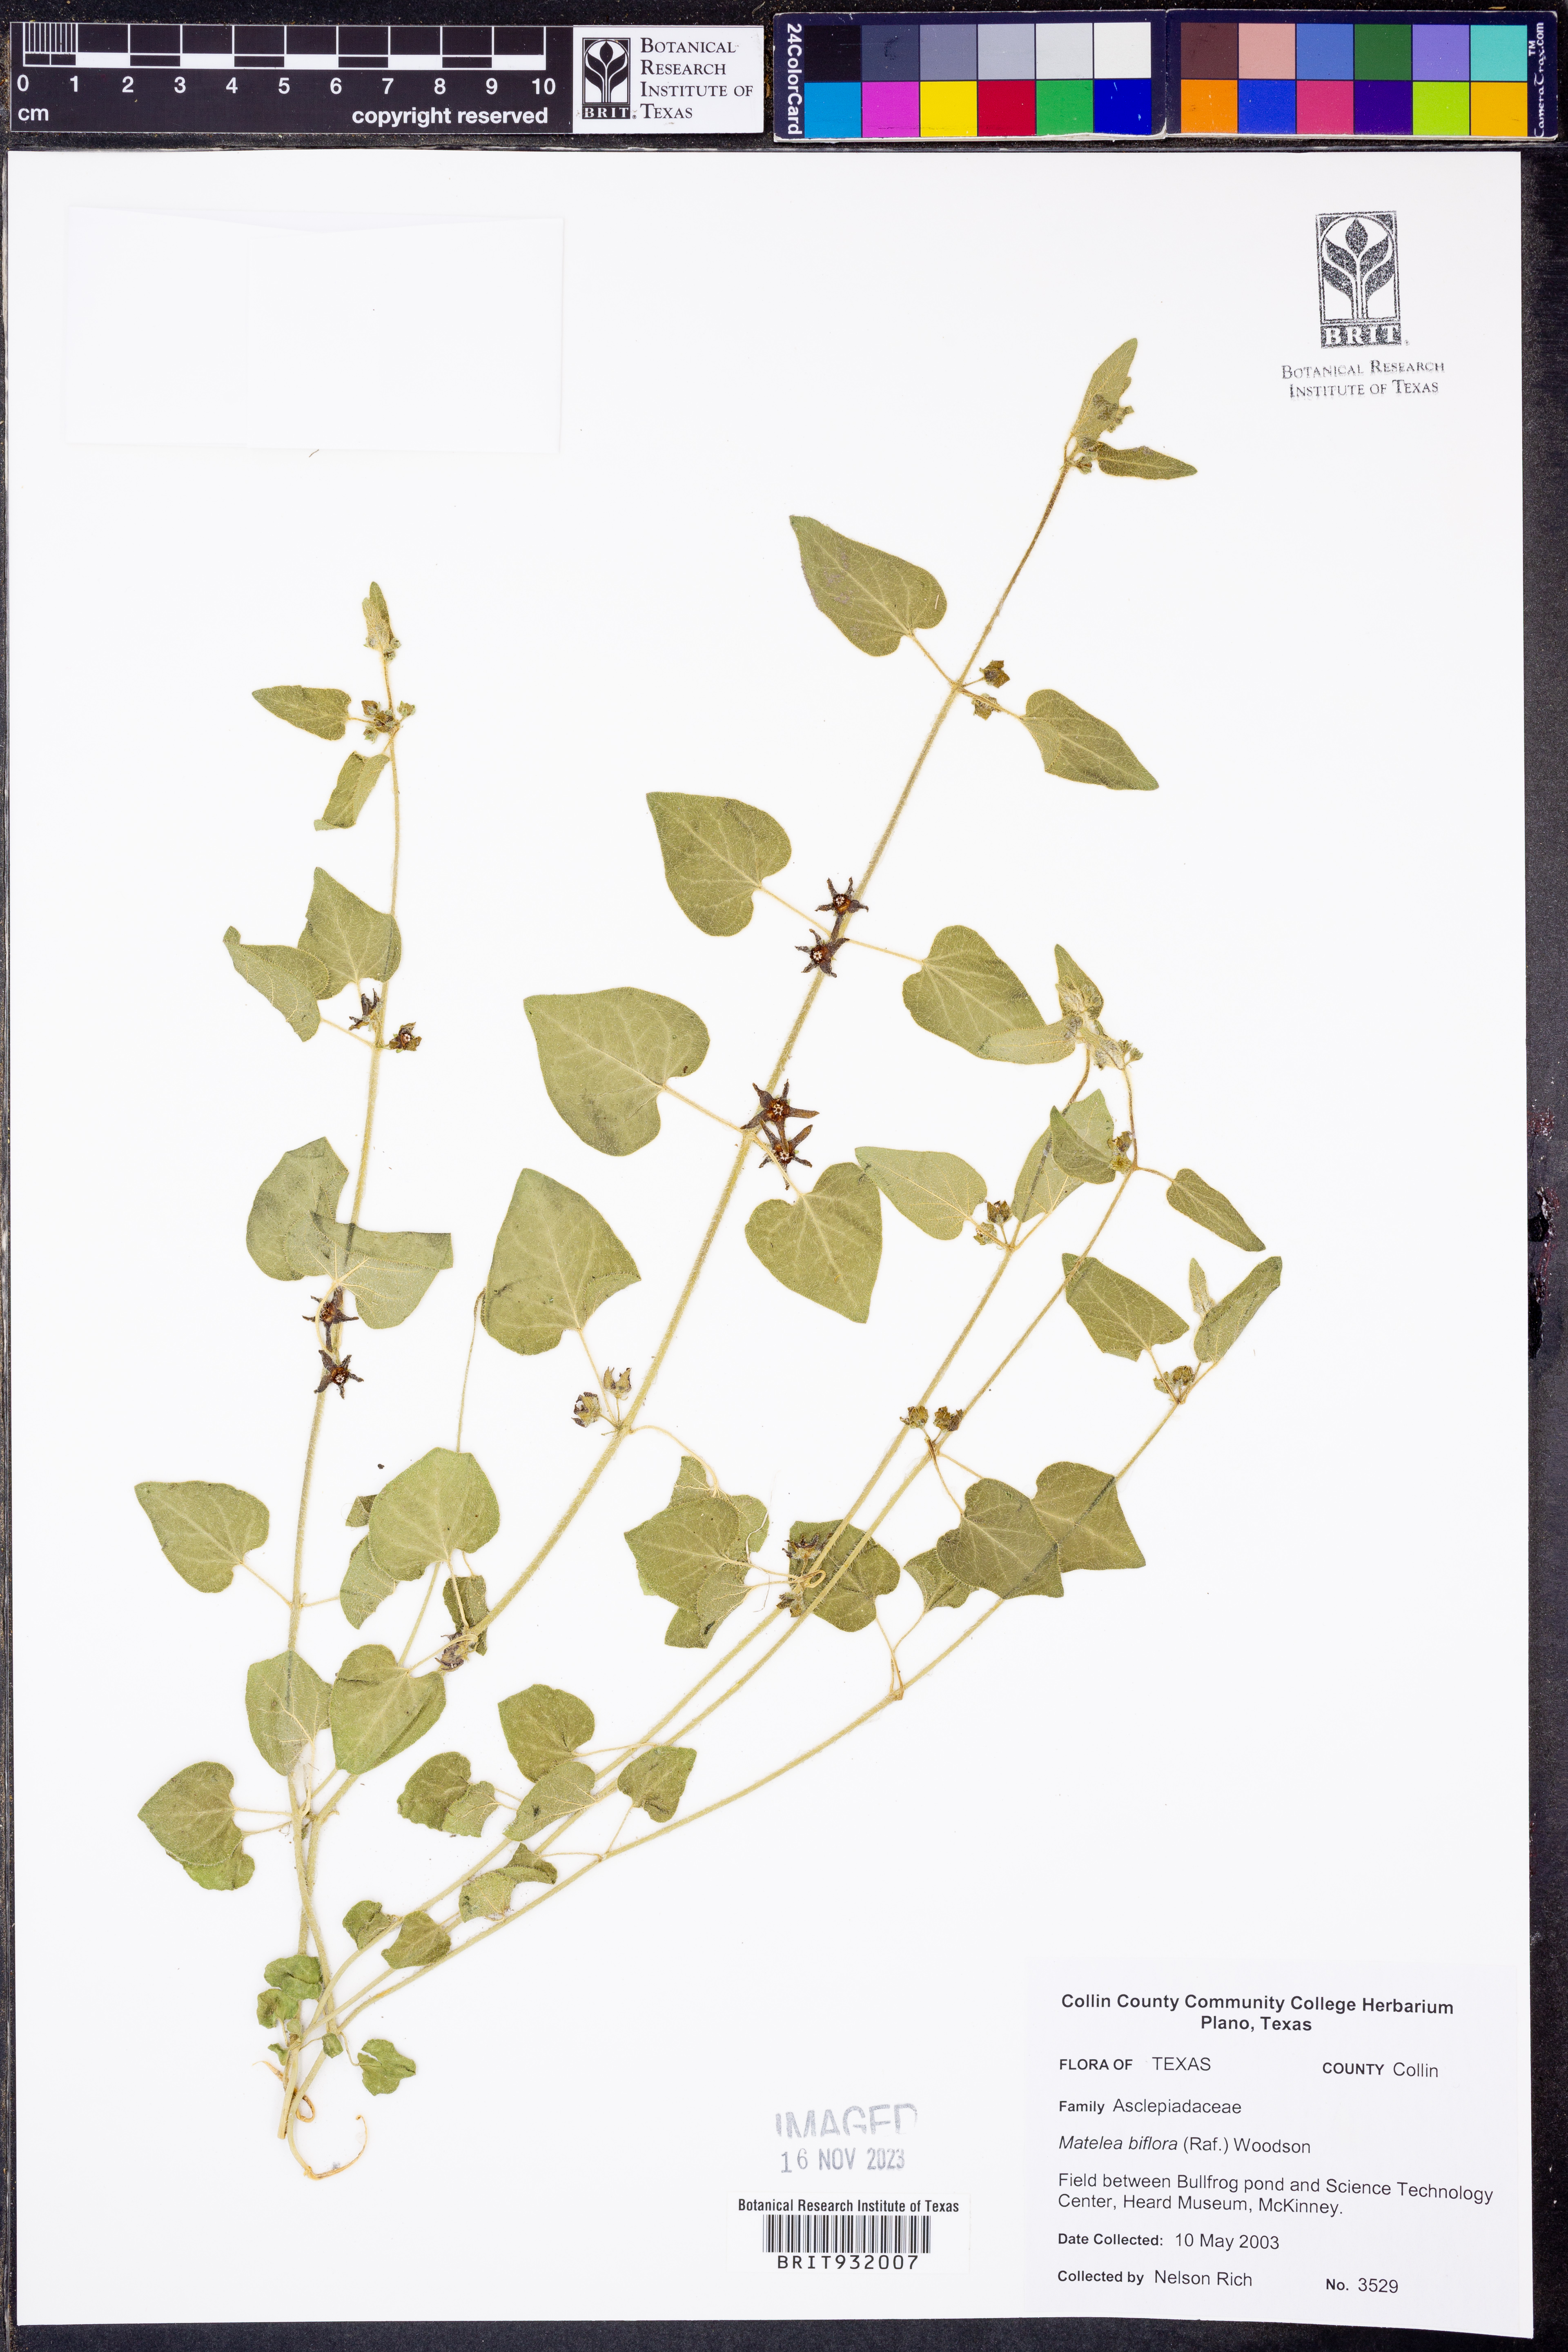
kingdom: Plantae
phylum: Tracheophyta
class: Magnoliopsida
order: Gentianales
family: Apocynaceae
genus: Chthamalia
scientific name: Chthamalia biflora
